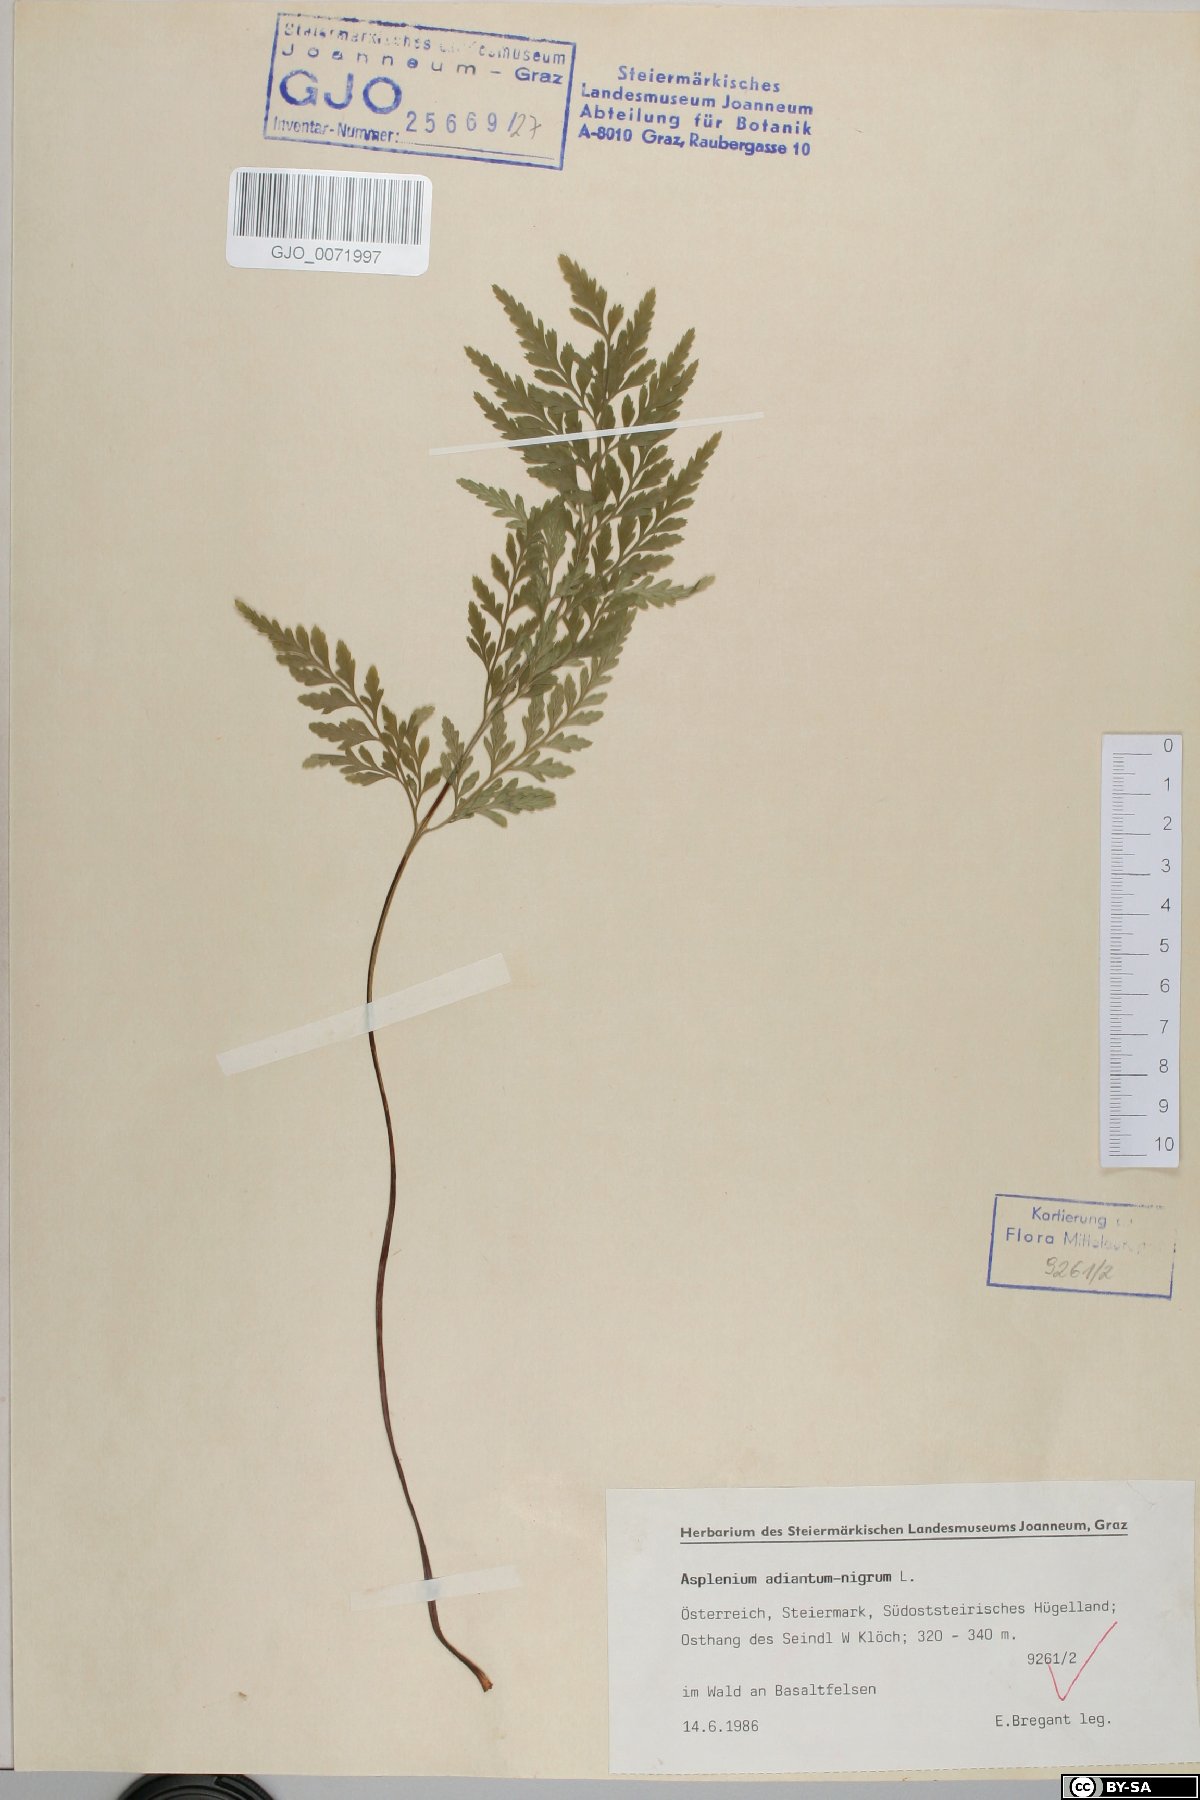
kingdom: Plantae
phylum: Tracheophyta
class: Polypodiopsida
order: Polypodiales
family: Aspleniaceae
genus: Asplenium
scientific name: Asplenium adiantum-nigrum
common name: Black spleenwort
